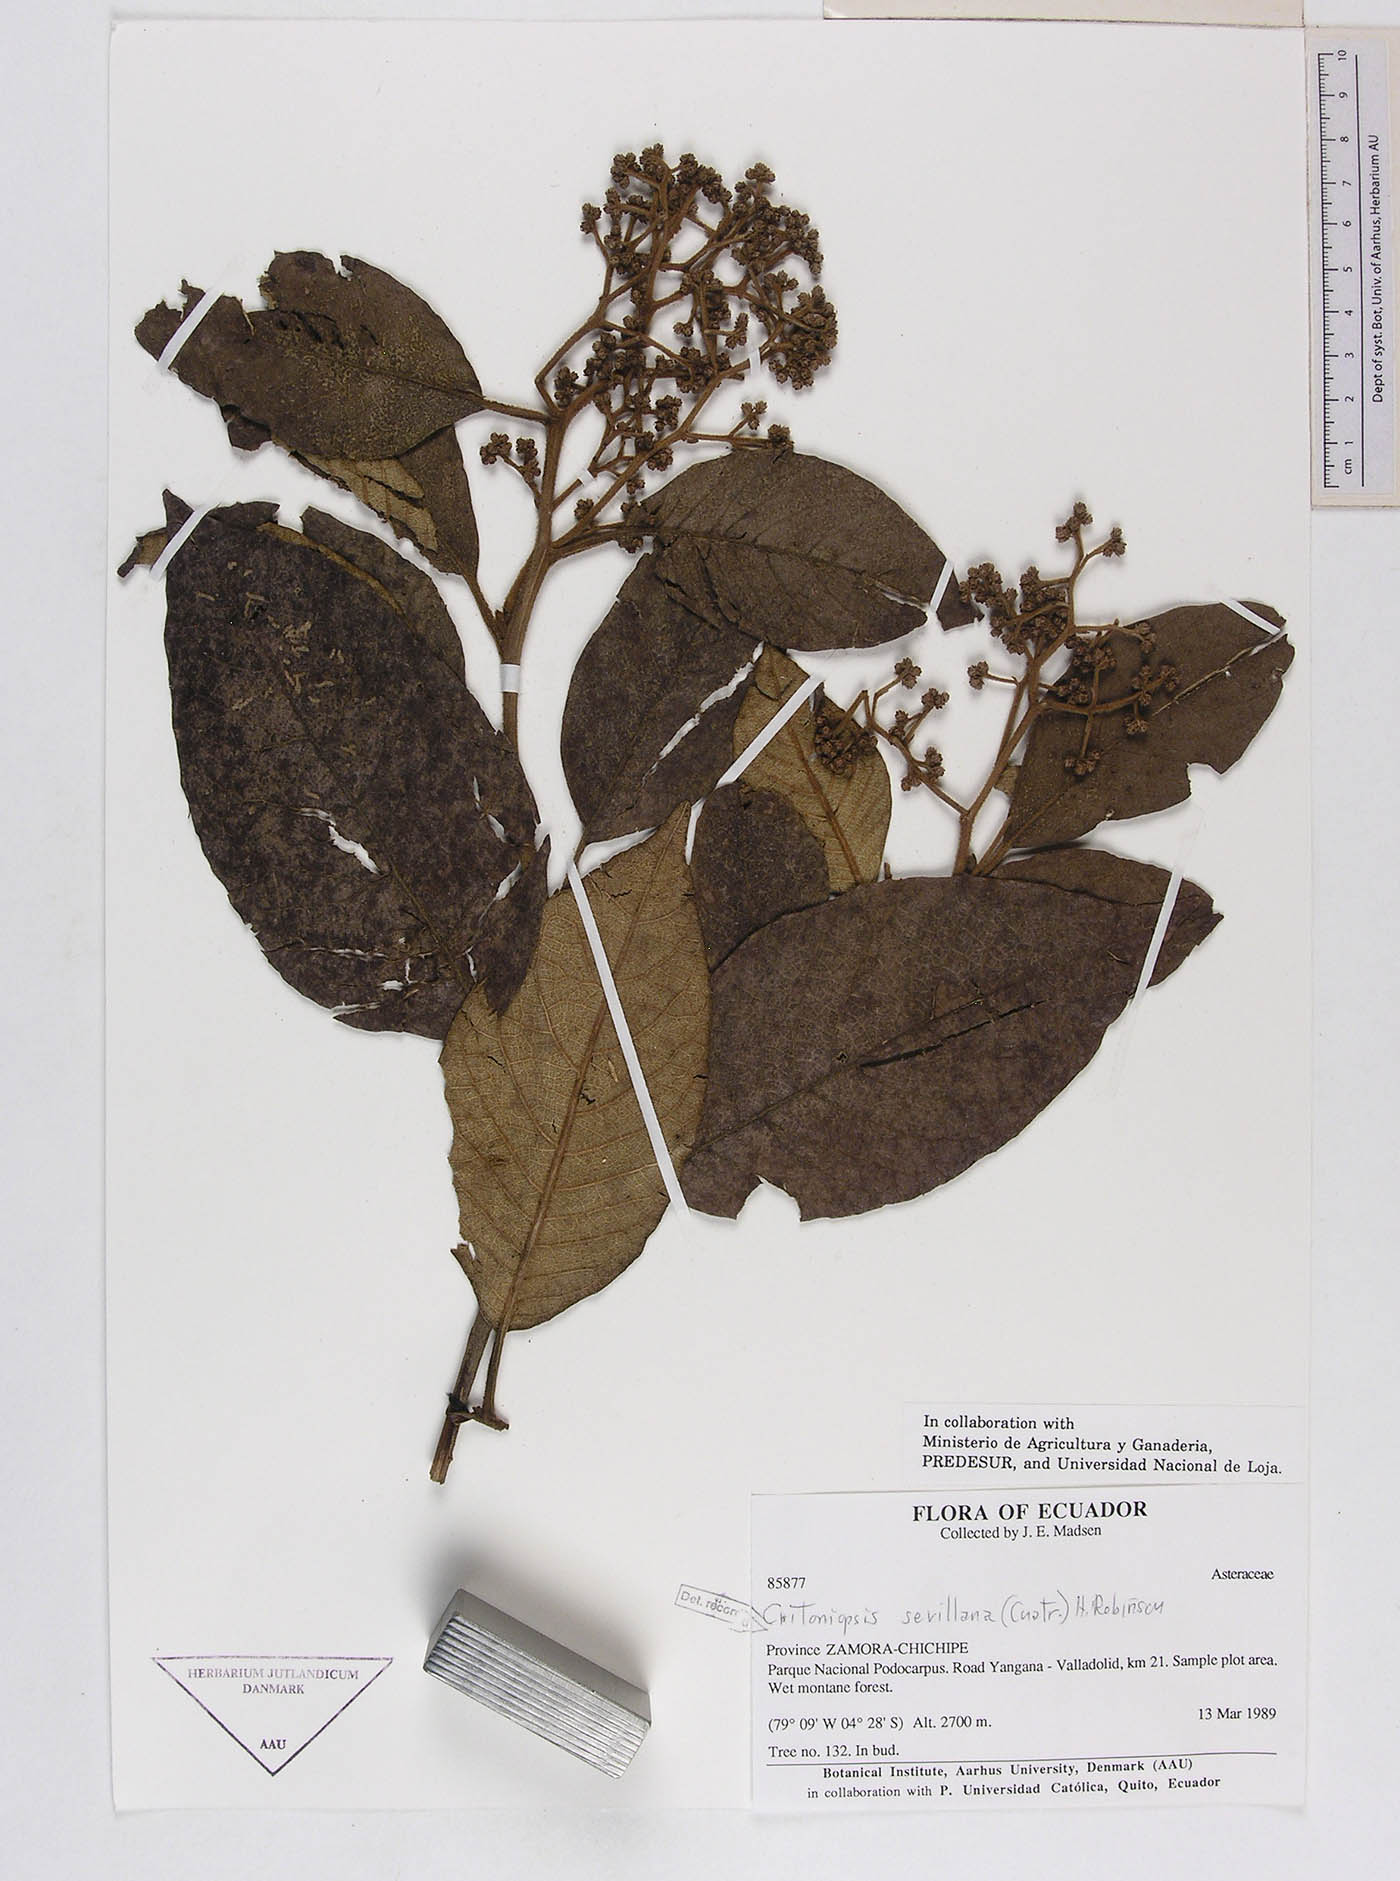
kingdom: Plantae
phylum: Tracheophyta
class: Magnoliopsida
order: Asterales
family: Asteraceae
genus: Critoniopsis
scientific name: Critoniopsis cotopaxensis
